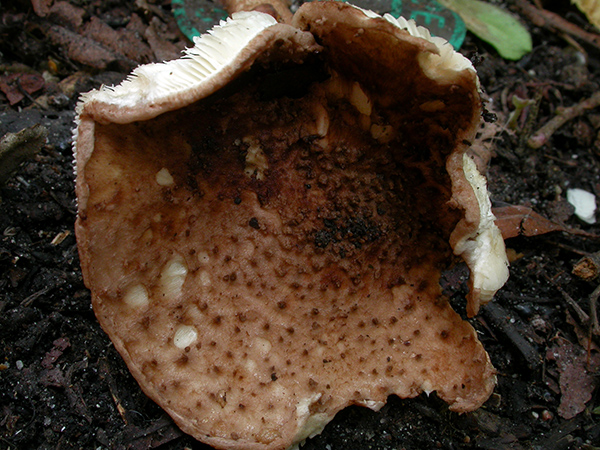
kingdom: Fungi
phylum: Basidiomycota
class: Agaricomycetes
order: Agaricales
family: Agaricaceae
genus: Echinoderma
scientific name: Echinoderma perplexum
